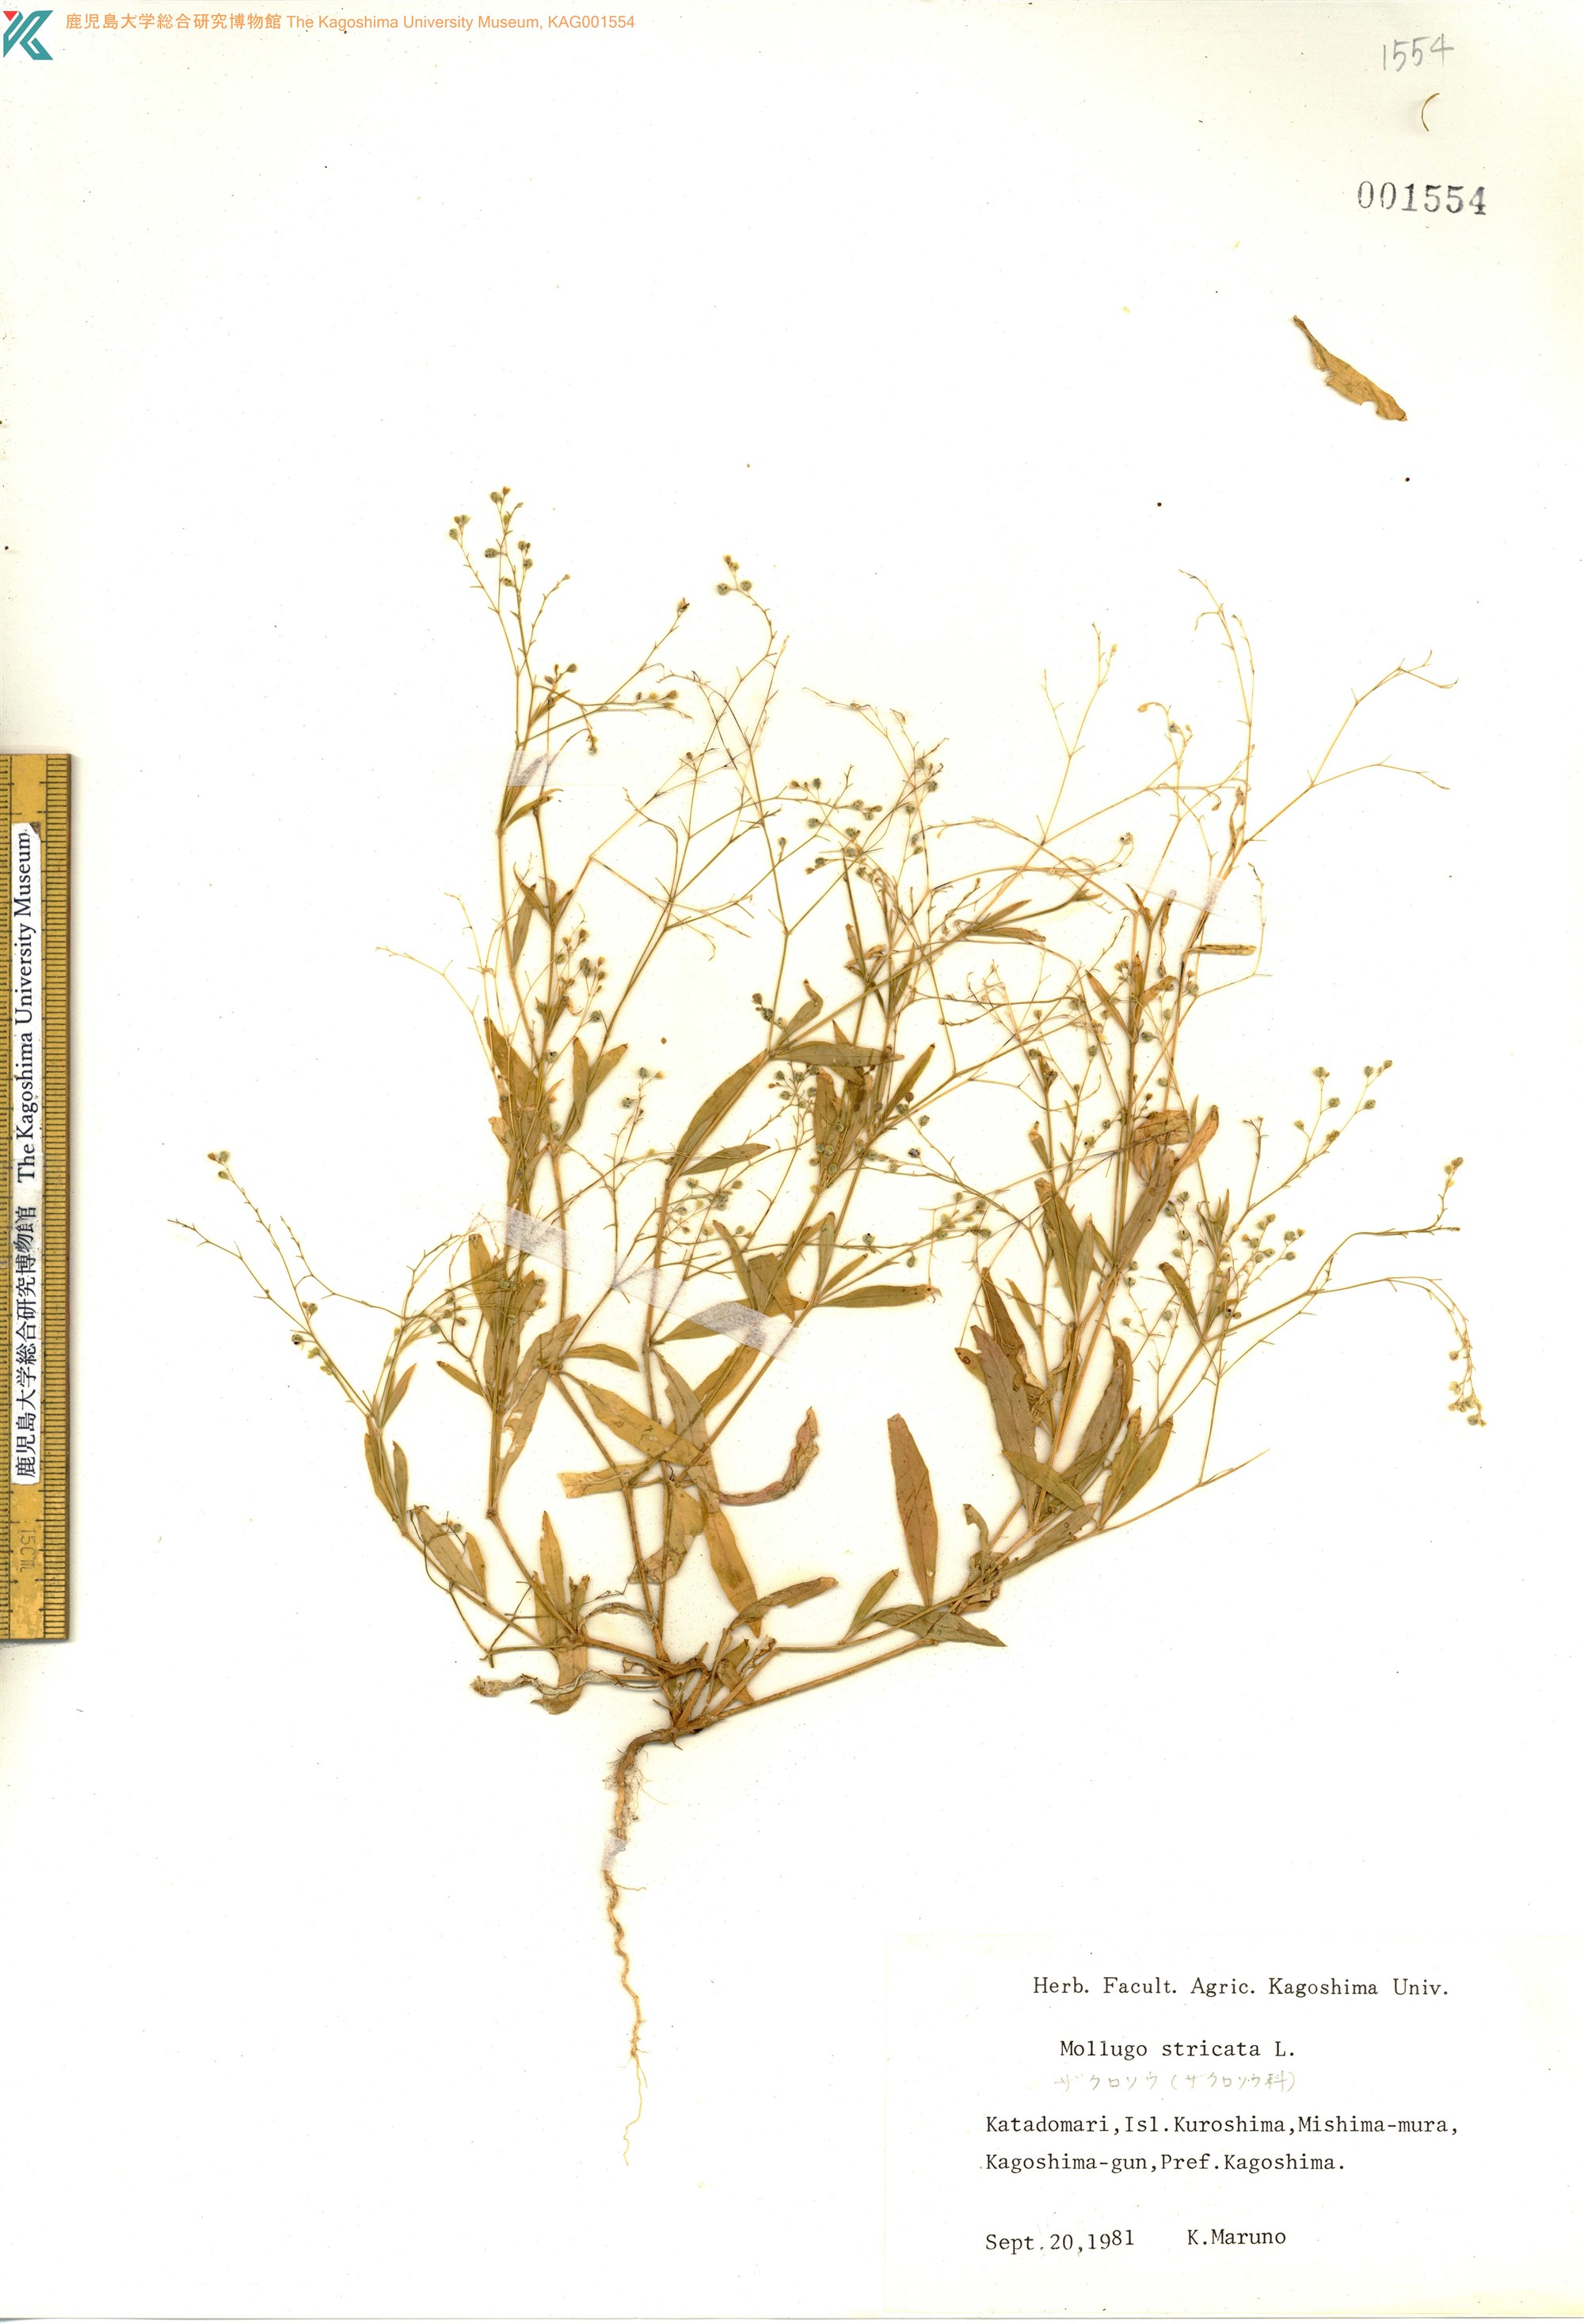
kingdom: Plantae
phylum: Tracheophyta
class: Magnoliopsida
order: Caryophyllales
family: Molluginaceae
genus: Trigastrotheca
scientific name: Trigastrotheca stricta
